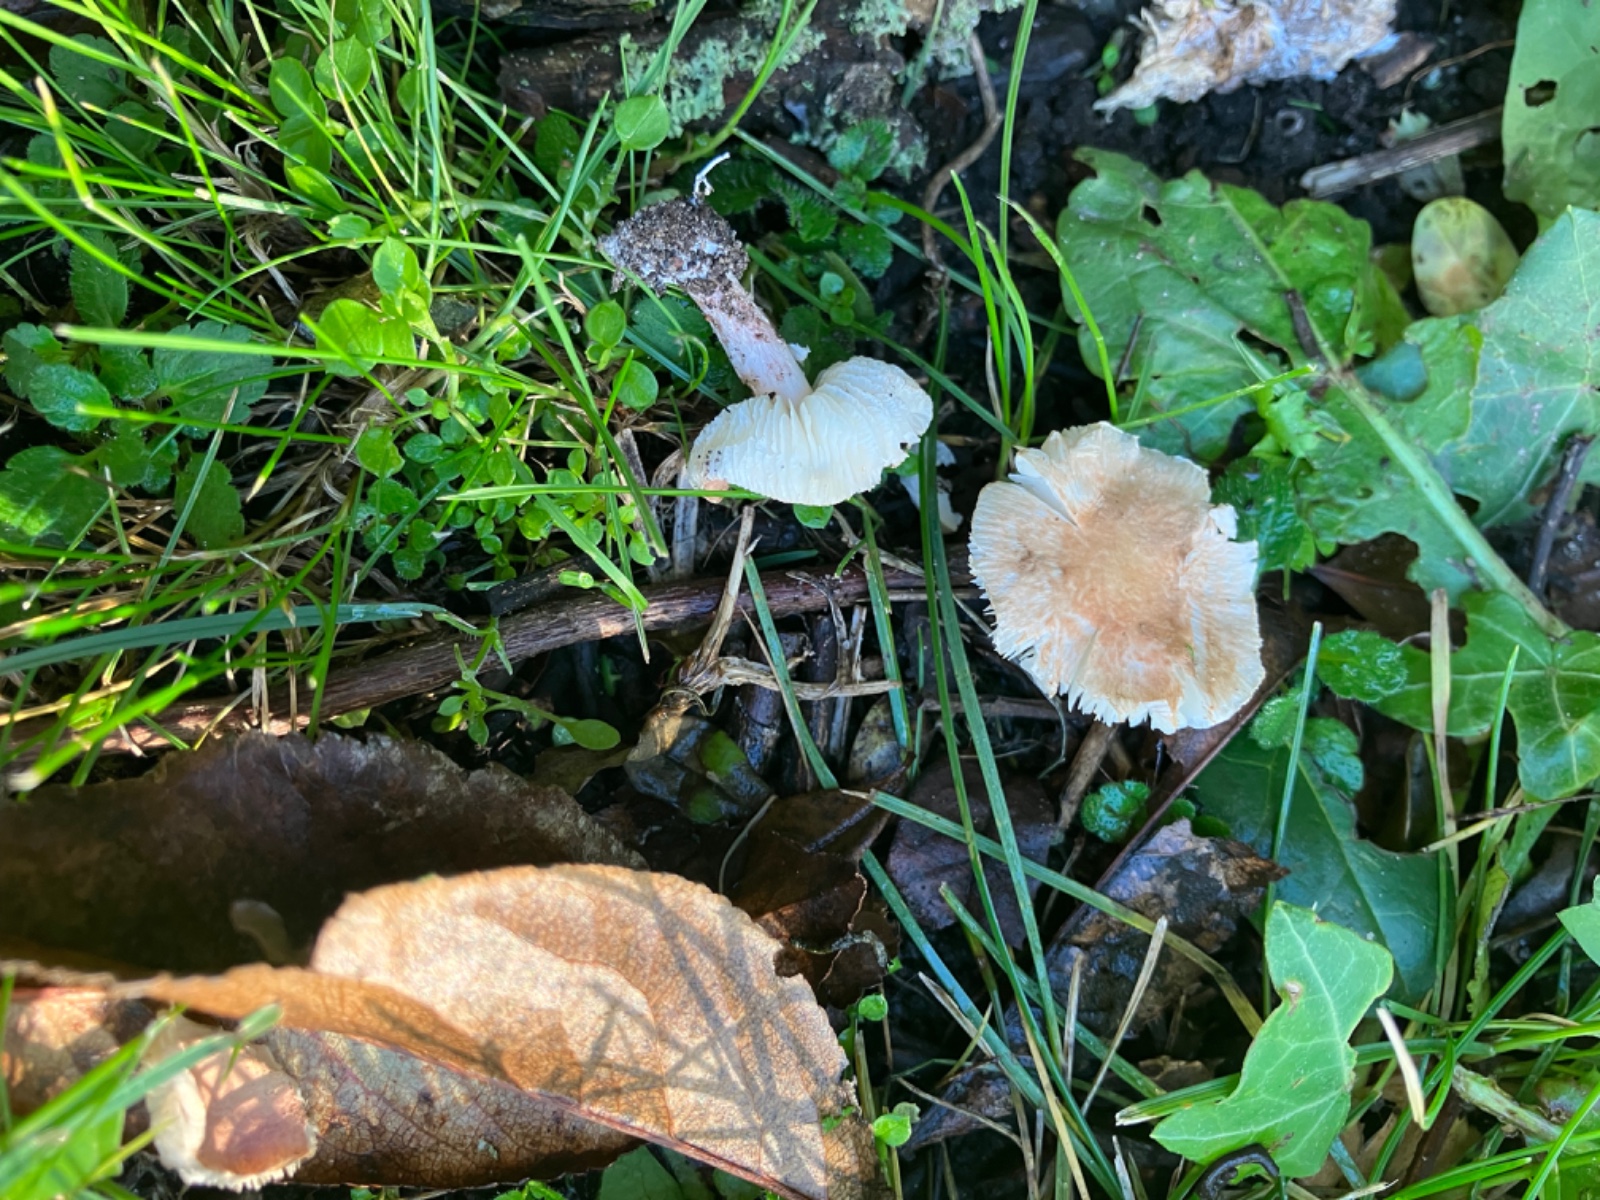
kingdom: Fungi
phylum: Basidiomycota
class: Agaricomycetes
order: Agaricales
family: Agaricaceae
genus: Lepiota
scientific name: Lepiota subincarnata
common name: kødfarvet parasolhat
